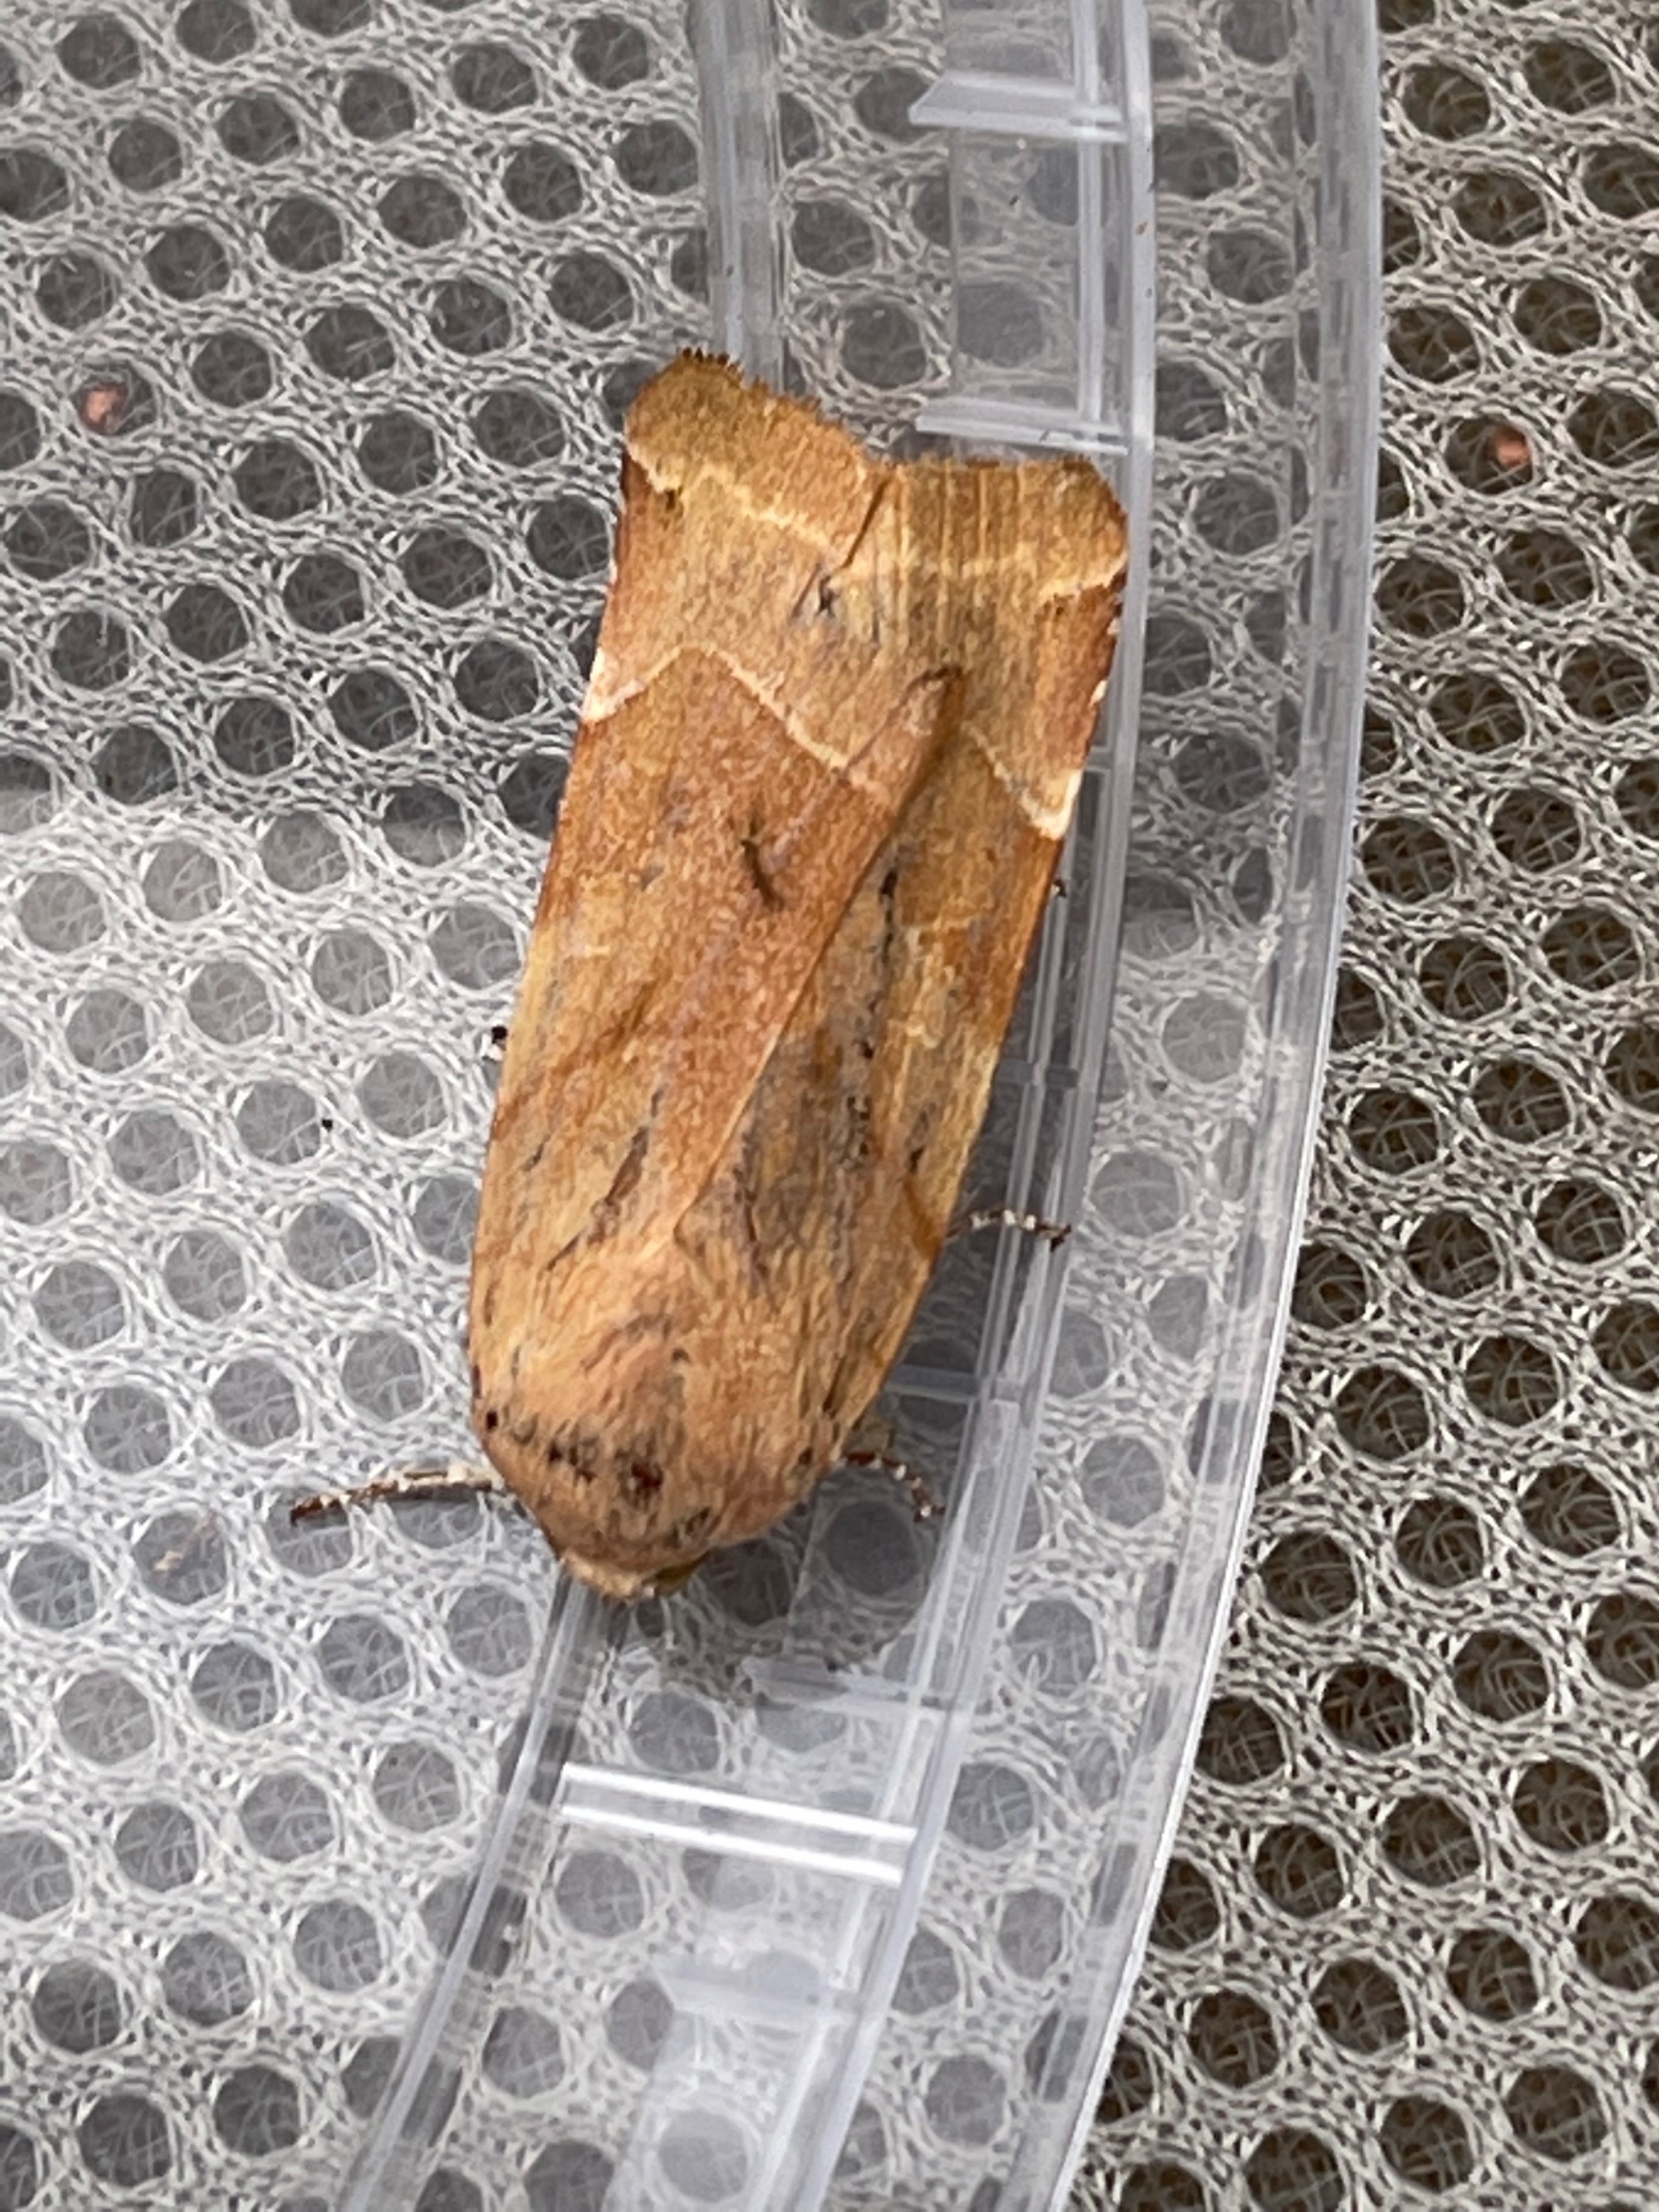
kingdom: Animalia
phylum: Arthropoda
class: Insecta
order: Lepidoptera
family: Noctuidae
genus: Noctua
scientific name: Noctua fimbriata
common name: Gul båndugle
